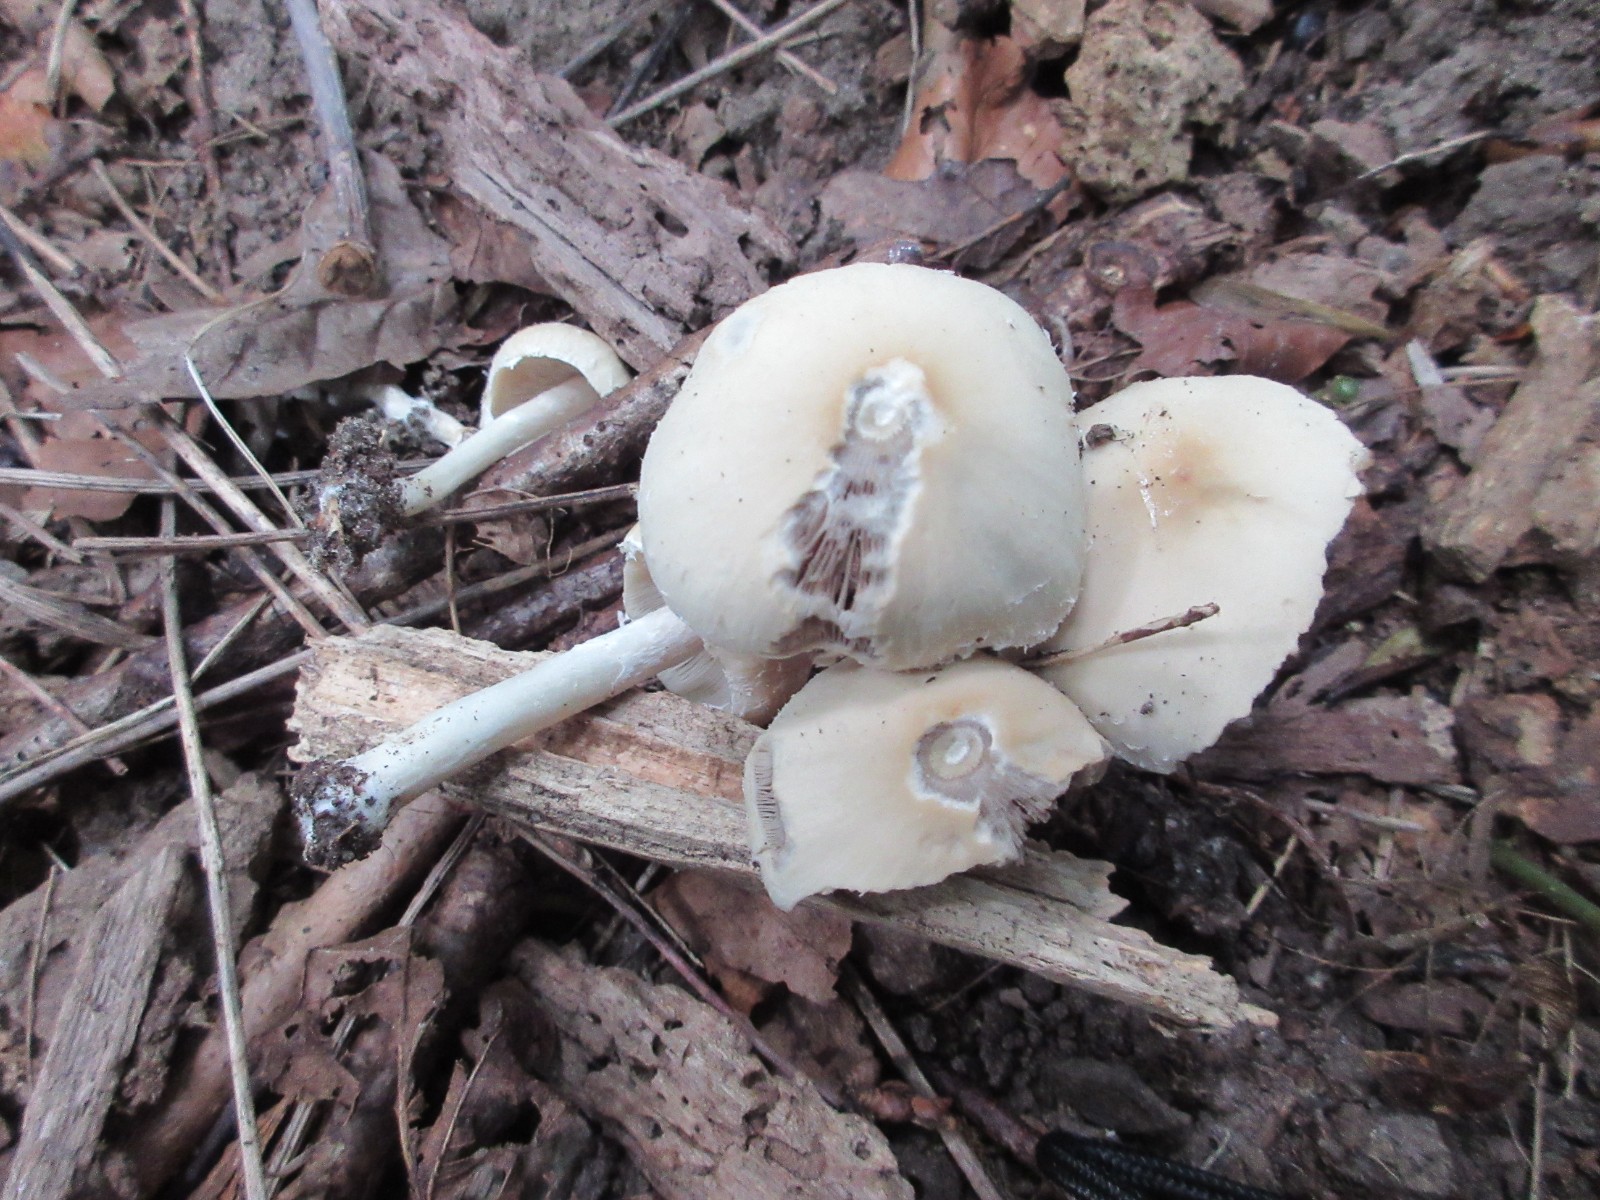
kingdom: Fungi
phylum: Basidiomycota
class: Agaricomycetes
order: Agaricales
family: Psathyrellaceae
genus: Candolleomyces
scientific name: Candolleomyces candolleanus
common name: Candolles mørkhat
